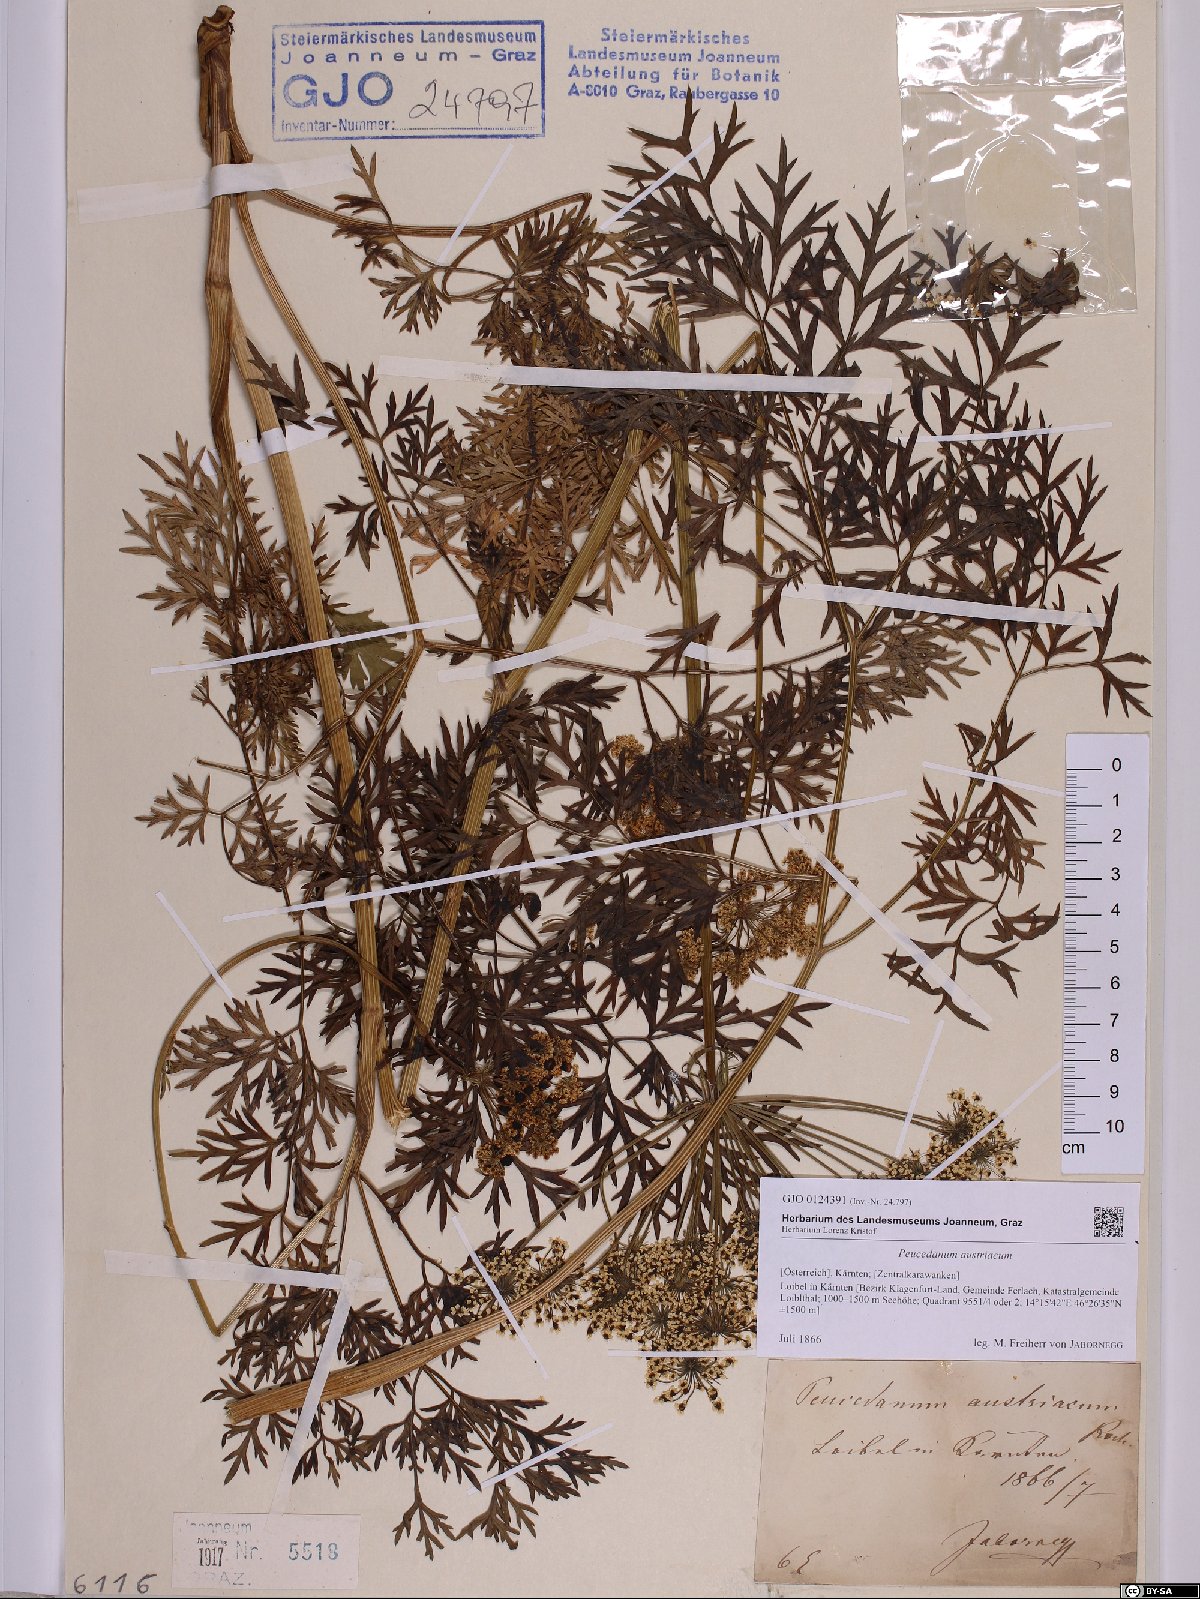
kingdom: Plantae
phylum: Tracheophyta
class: Magnoliopsida
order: Apiales
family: Apiaceae
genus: Peucedanum
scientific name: Peucedanum austriacum
